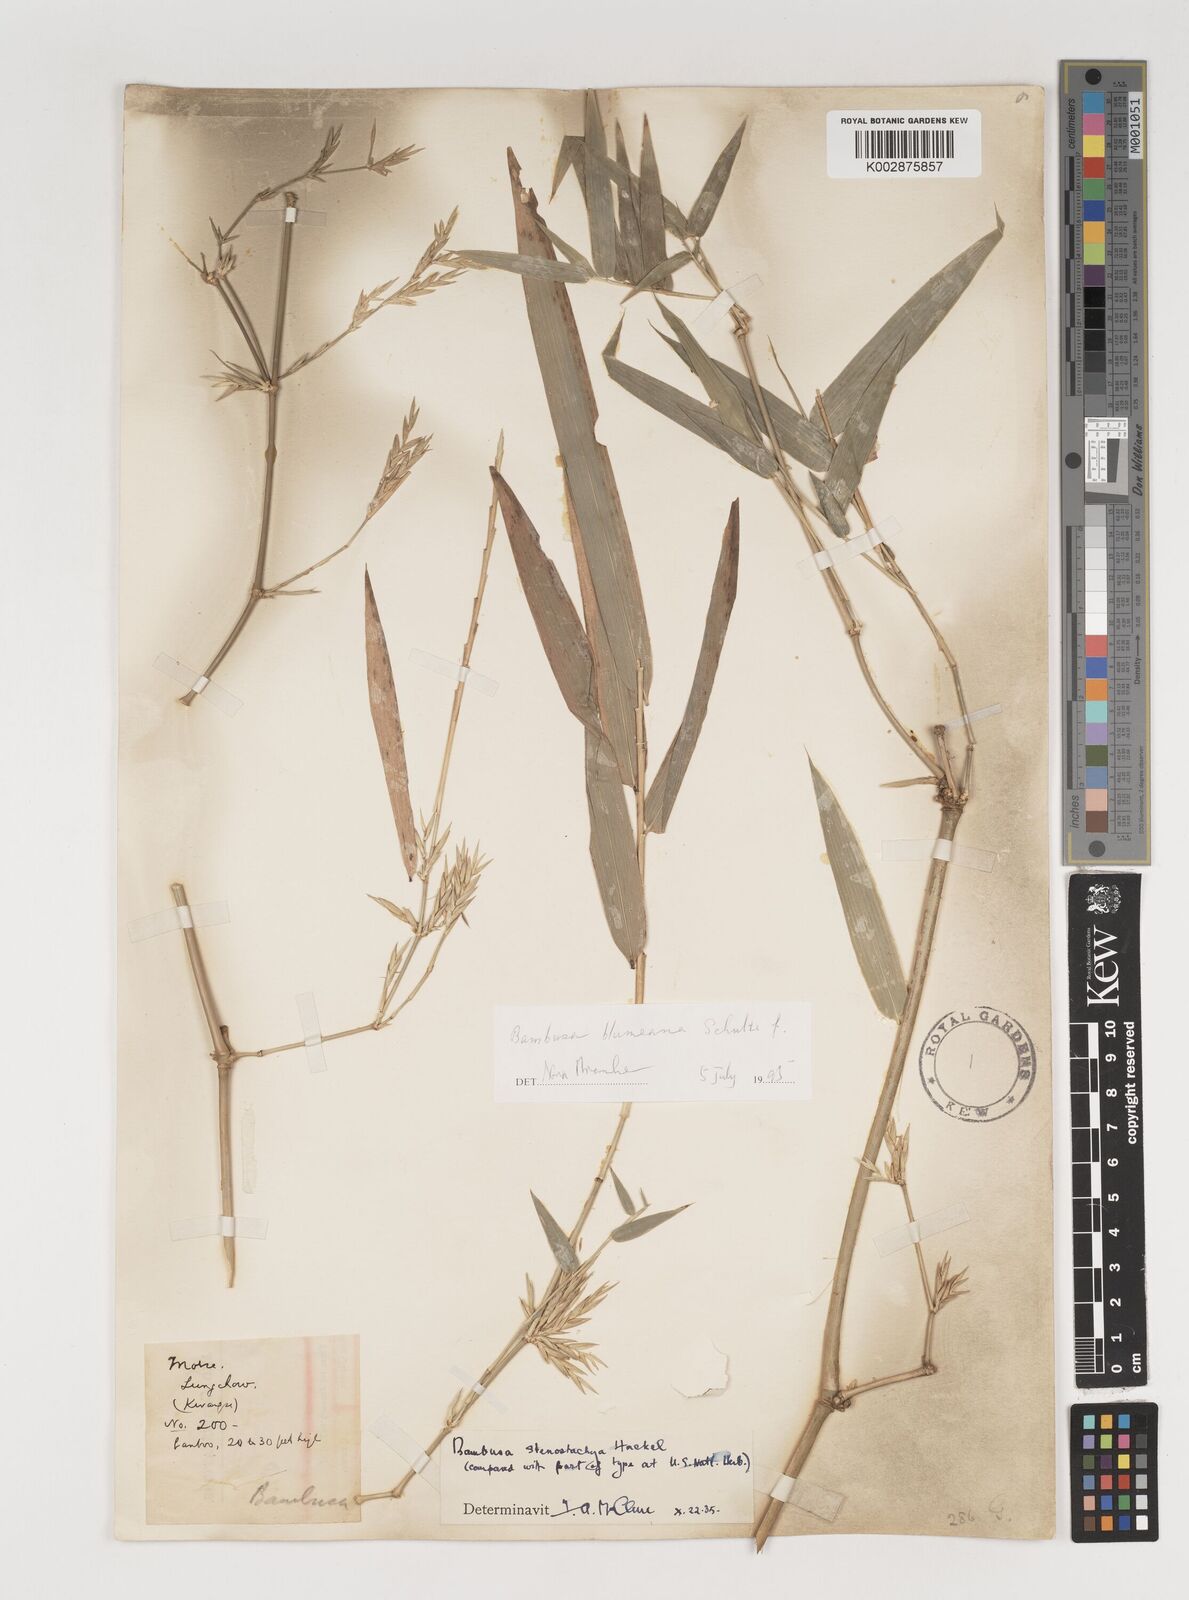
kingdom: Plantae
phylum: Tracheophyta
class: Liliopsida
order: Poales
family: Poaceae
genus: Bambusa
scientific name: Bambusa spinosa
